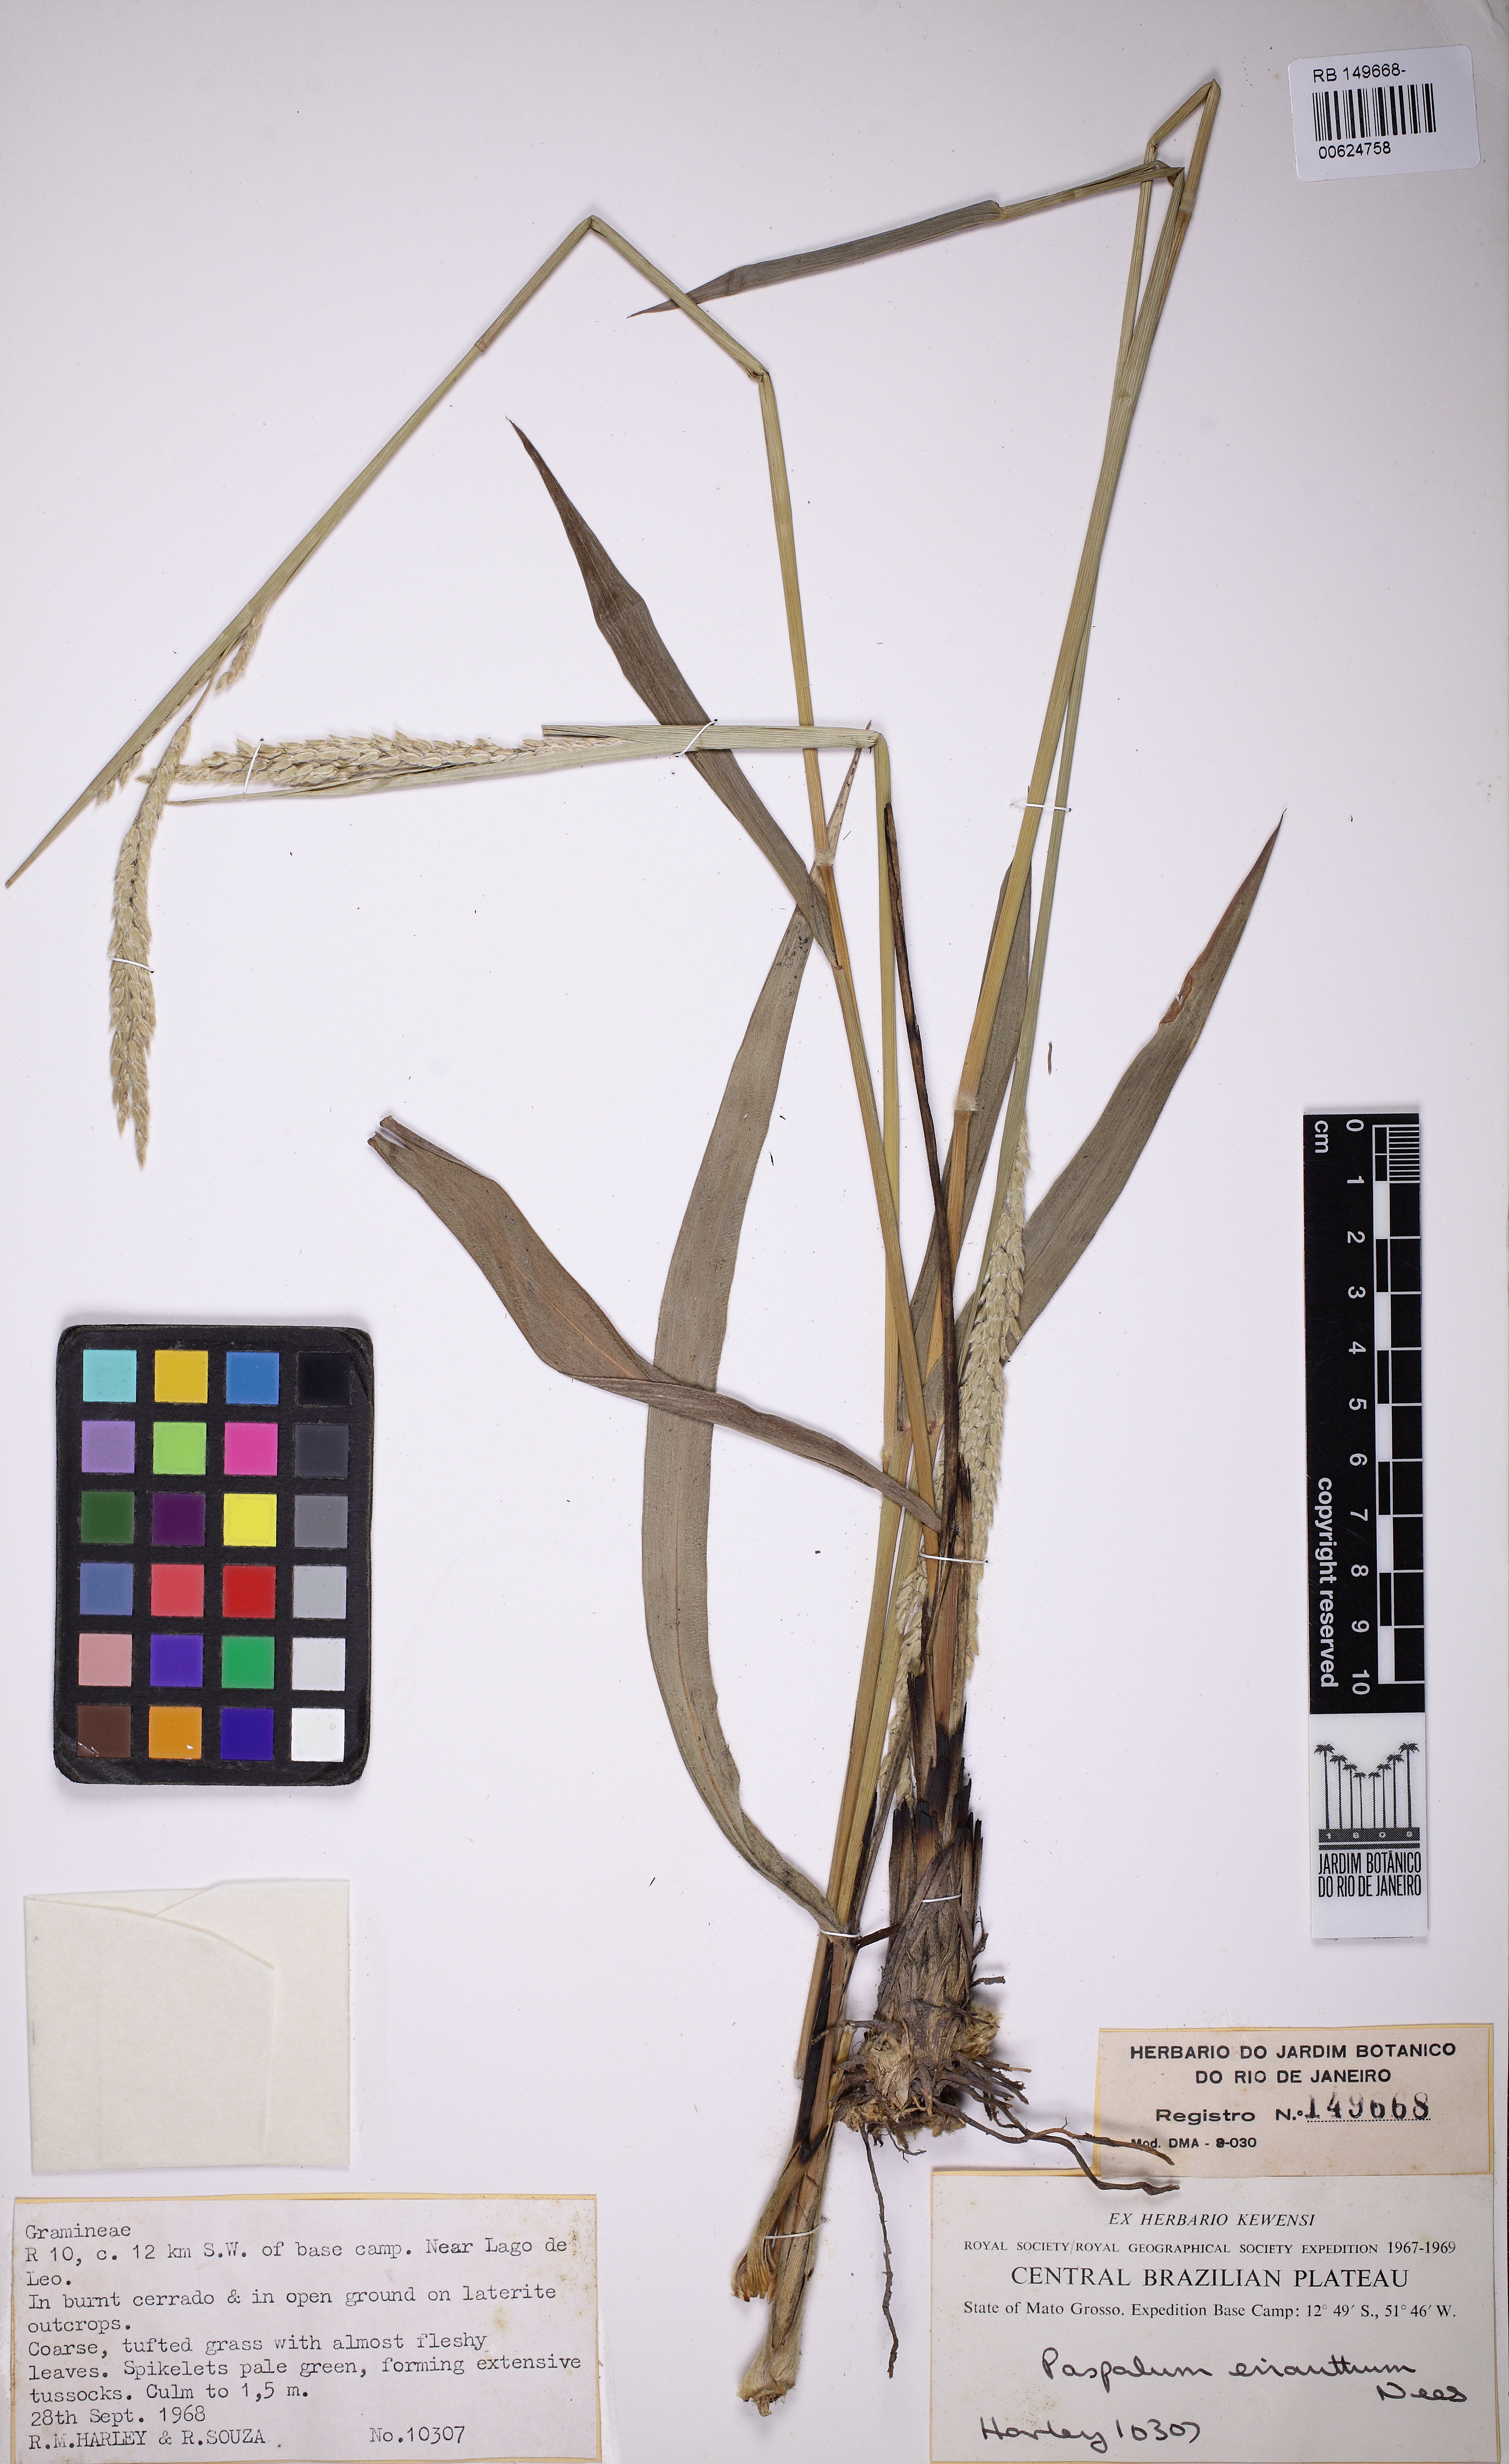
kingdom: Plantae
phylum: Tracheophyta
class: Liliopsida
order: Poales
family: Poaceae
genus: Paspalum
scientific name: Paspalum erianthum
